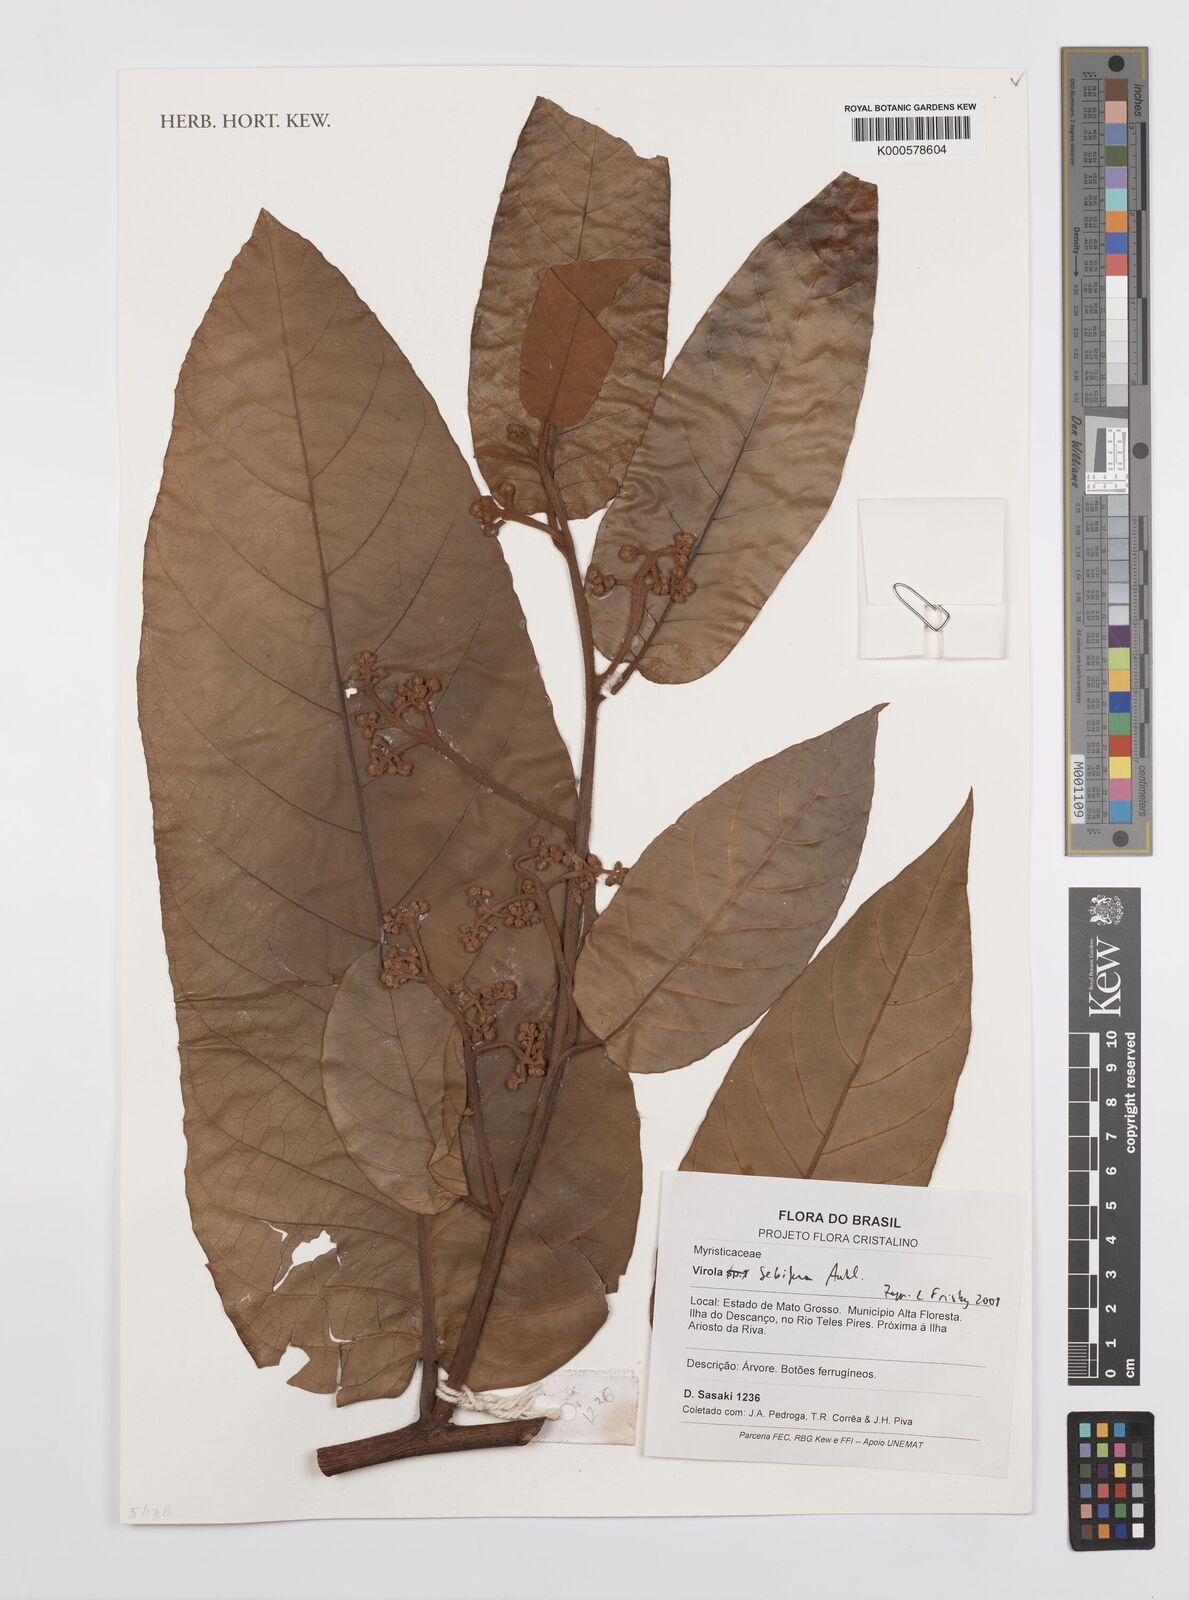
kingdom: Plantae
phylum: Tracheophyta
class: Magnoliopsida
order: Magnoliales
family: Myristicaceae
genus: Virola
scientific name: Virola sebifera
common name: Red ucuuba
